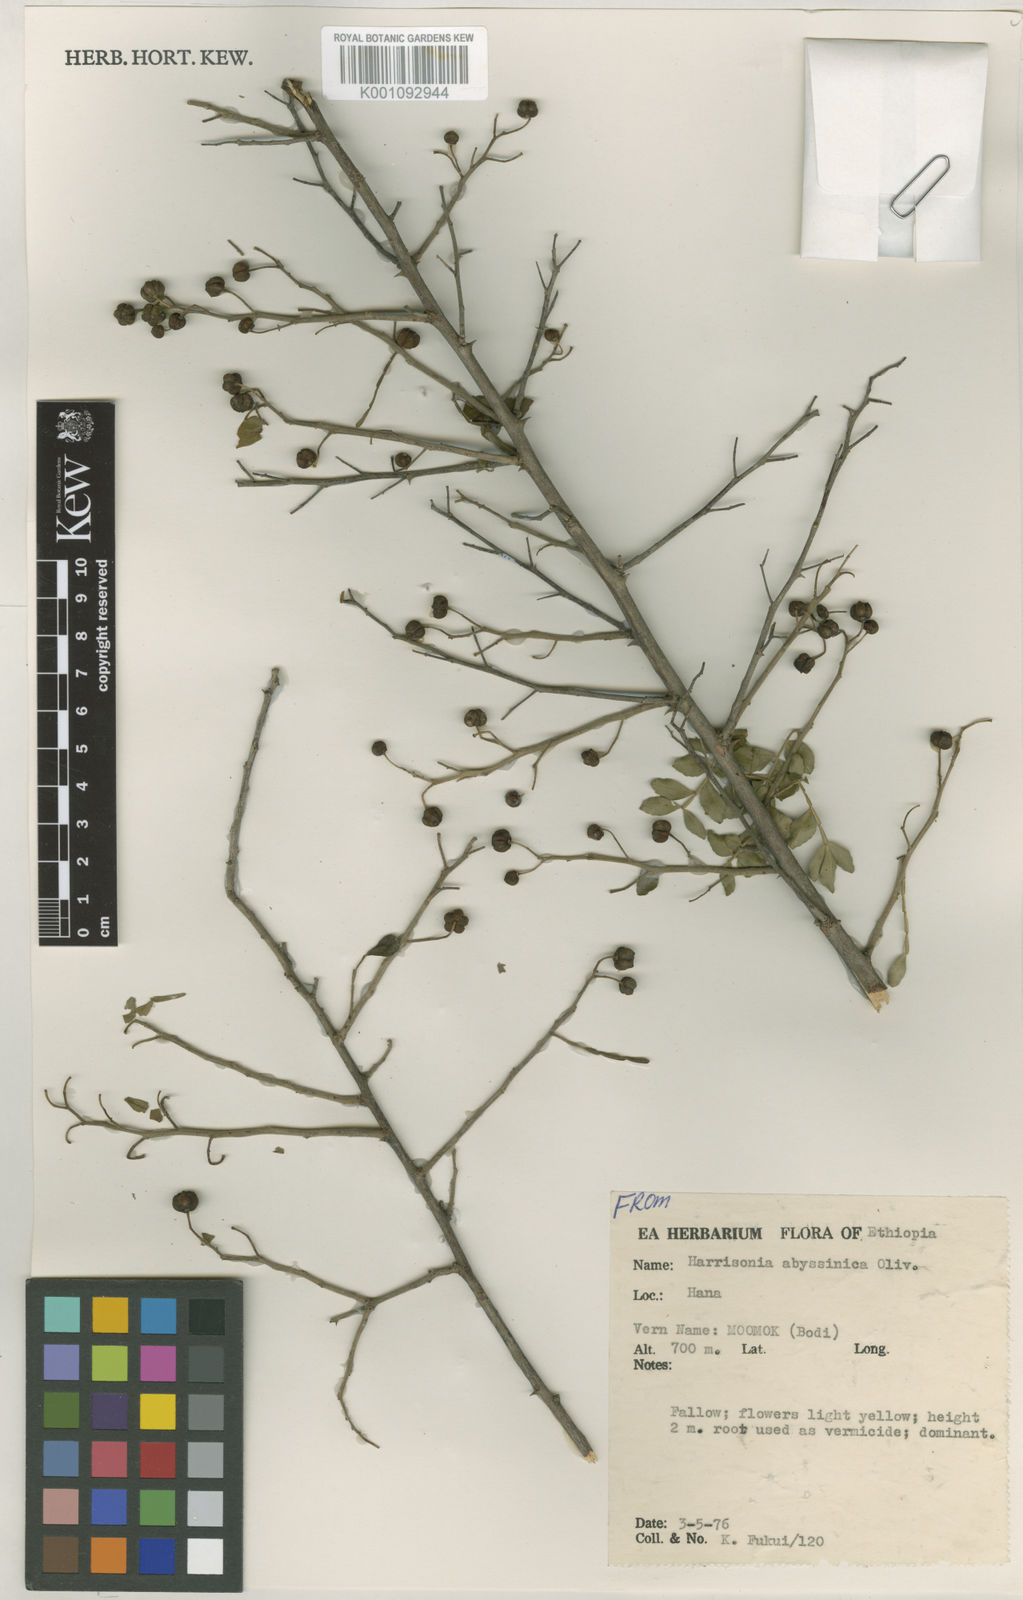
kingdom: Plantae
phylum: Tracheophyta
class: Magnoliopsida
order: Sapindales
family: Rutaceae
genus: Harrisonia
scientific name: Harrisonia abyssinica
